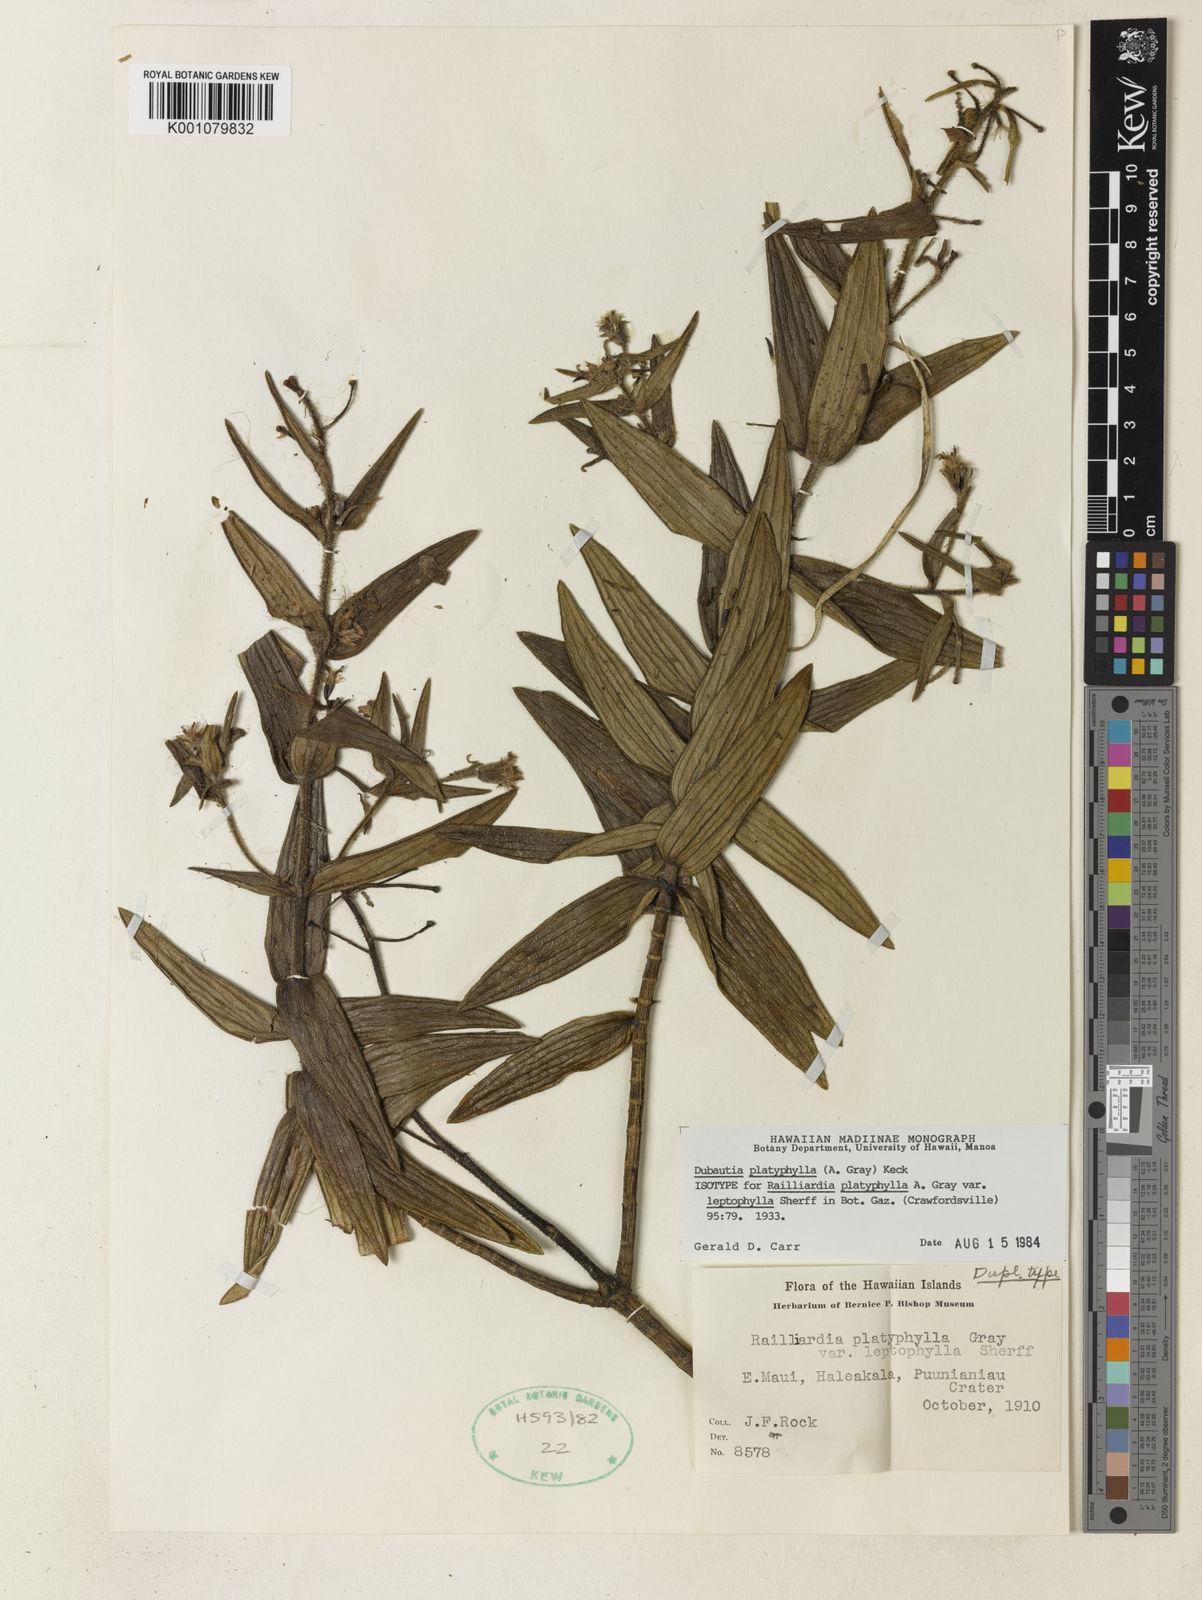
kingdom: Plantae
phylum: Tracheophyta
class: Magnoliopsida
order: Asterales
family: Asteraceae
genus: Dubautia
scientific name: Dubautia platyphylla
